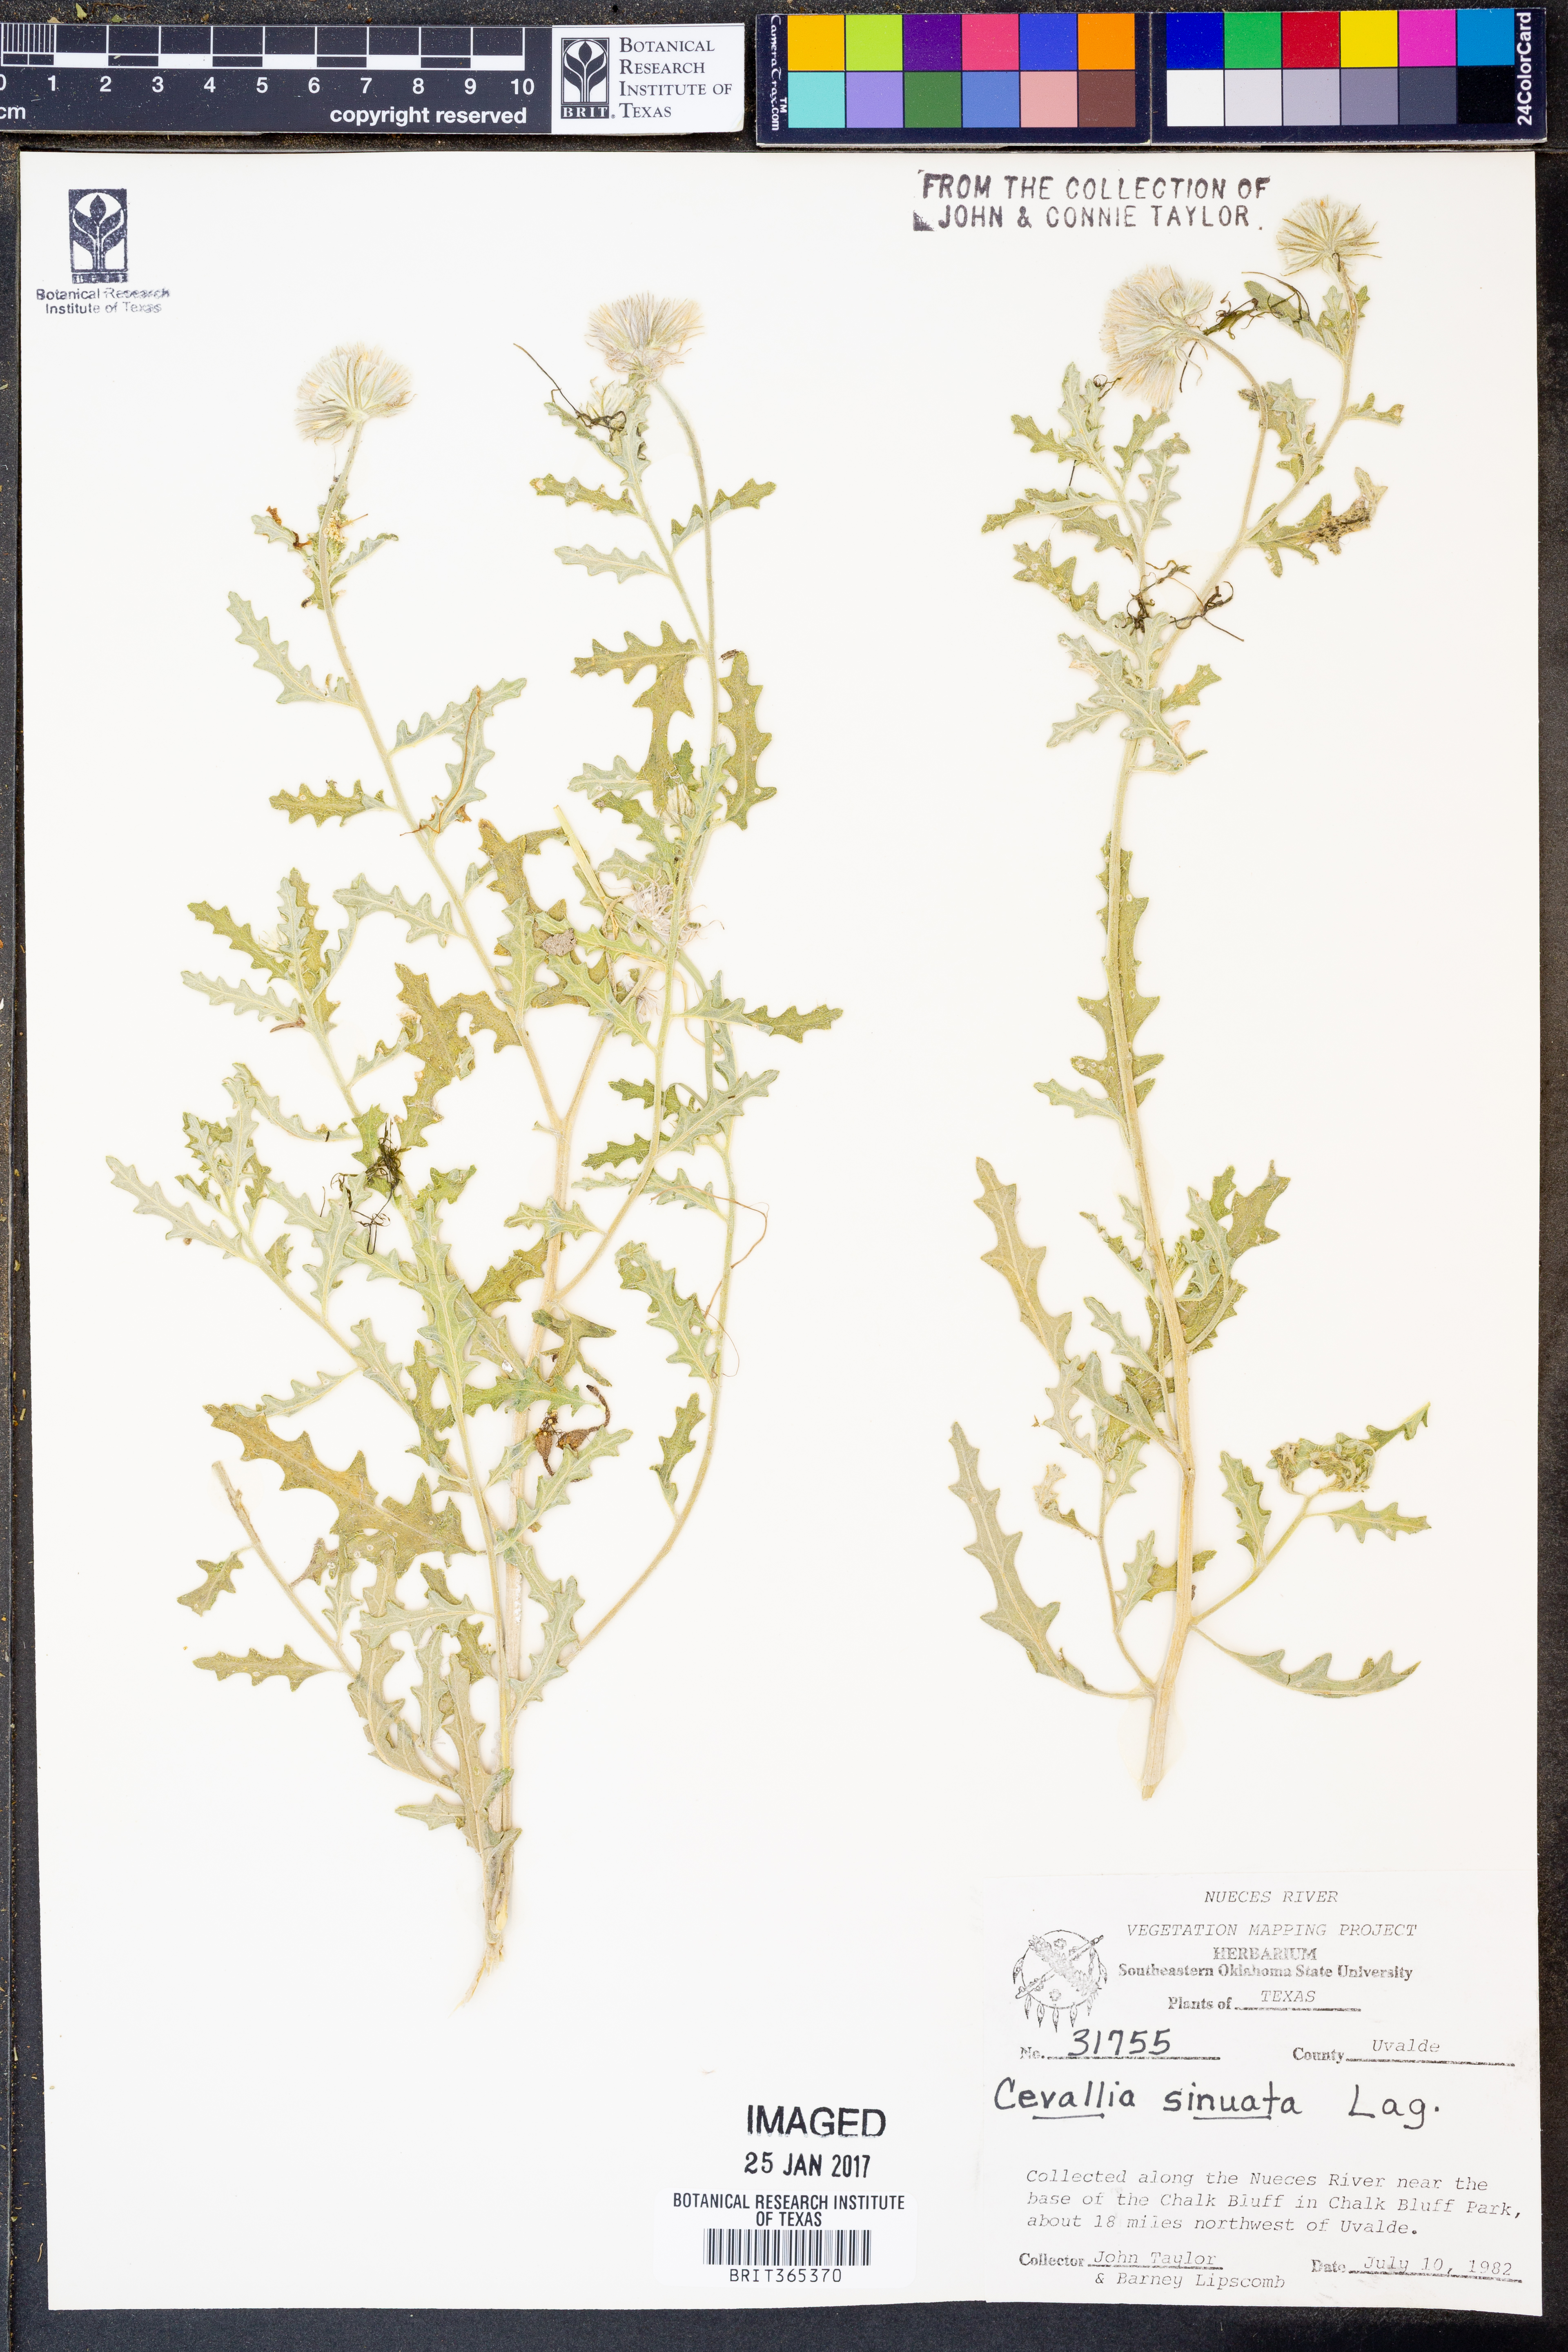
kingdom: Plantae
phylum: Tracheophyta
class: Magnoliopsida
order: Cornales
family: Loasaceae
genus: Cevallia
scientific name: Cevallia sinuata
